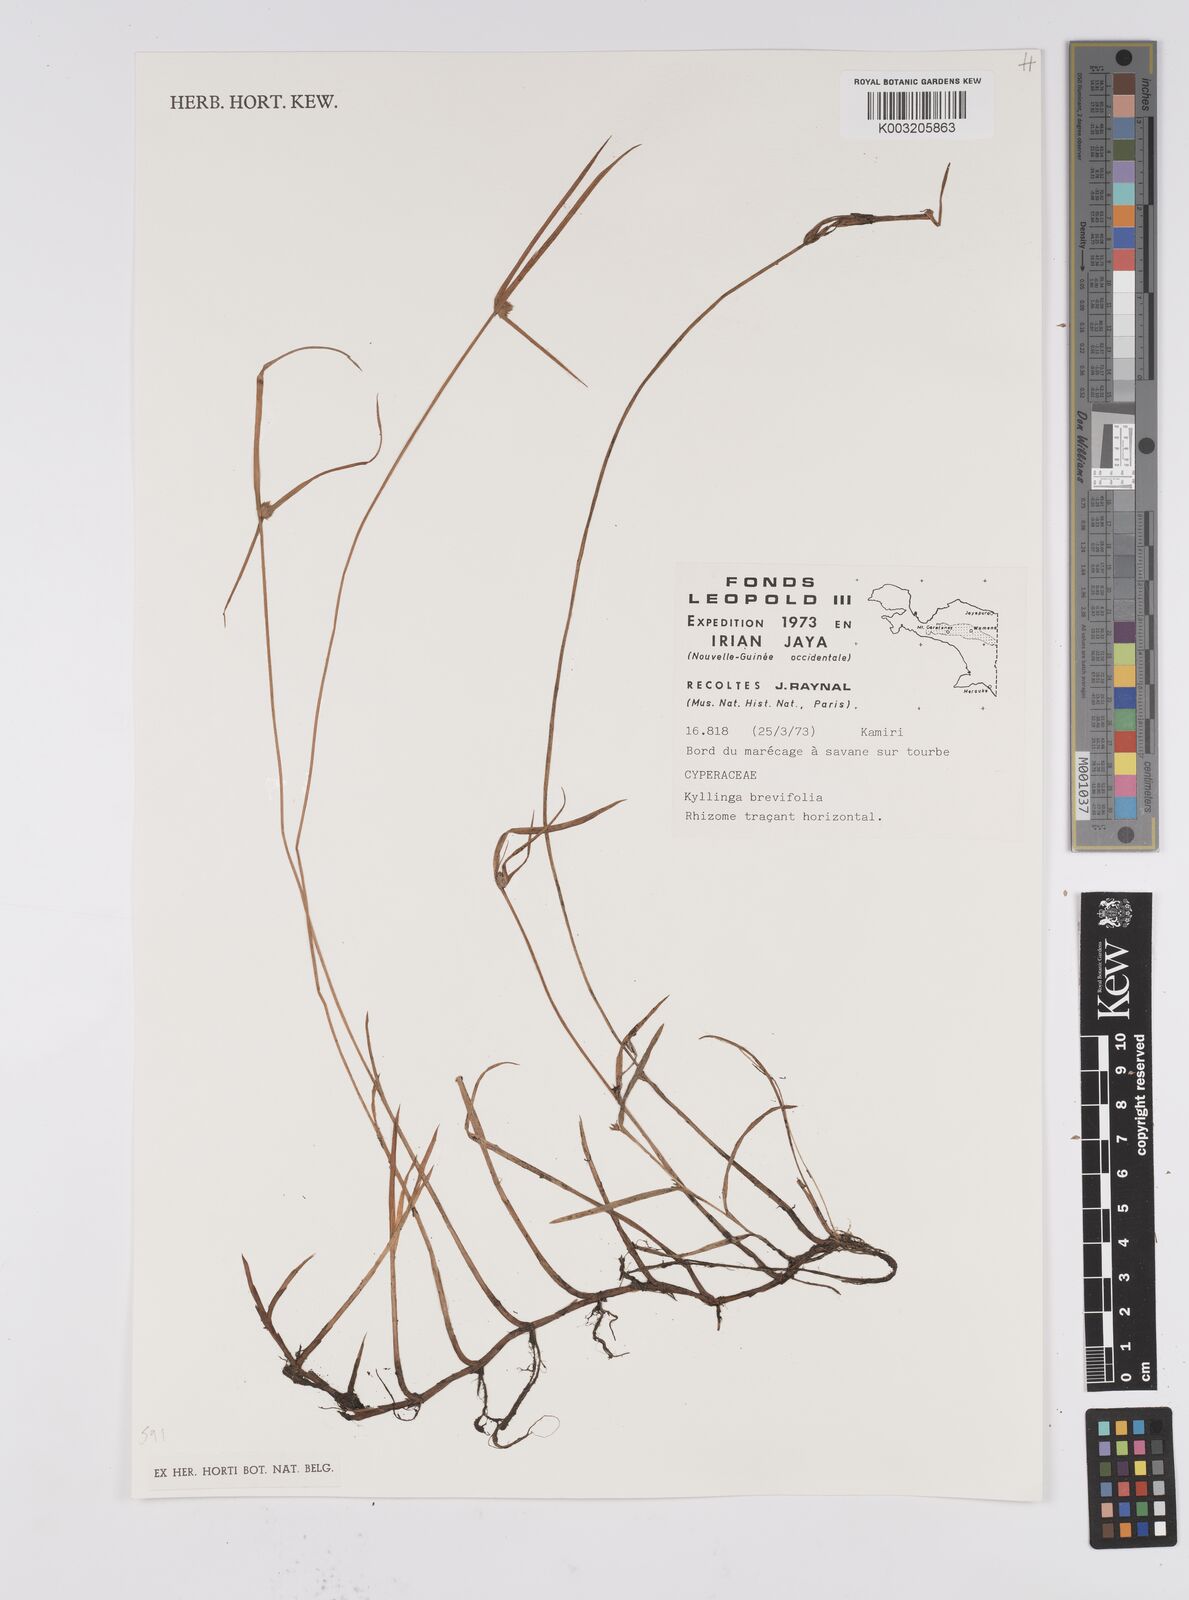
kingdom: Plantae
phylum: Tracheophyta
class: Liliopsida
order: Poales
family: Cyperaceae
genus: Cyperus
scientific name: Cyperus brevifolius
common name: Globe kyllinga
